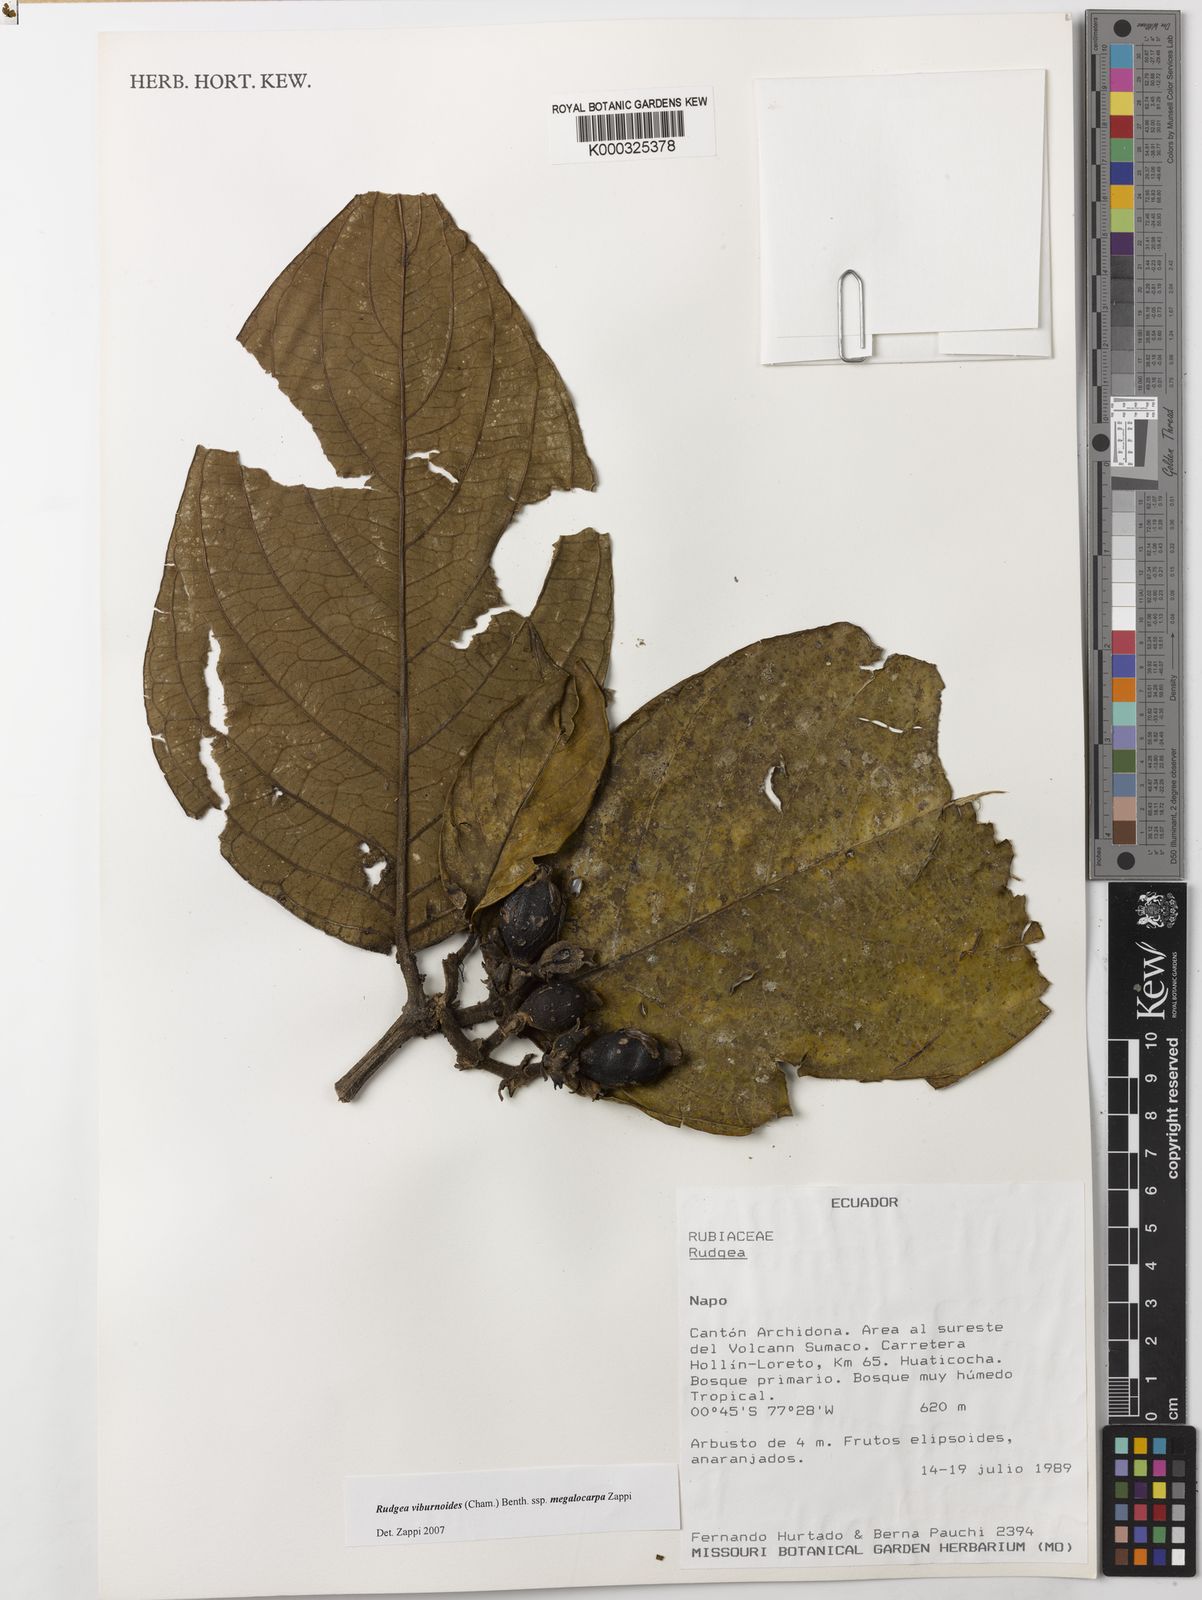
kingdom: Plantae
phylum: Tracheophyta
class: Magnoliopsida
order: Gentianales
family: Rubiaceae
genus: Rudgea
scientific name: Rudgea viburnoides
